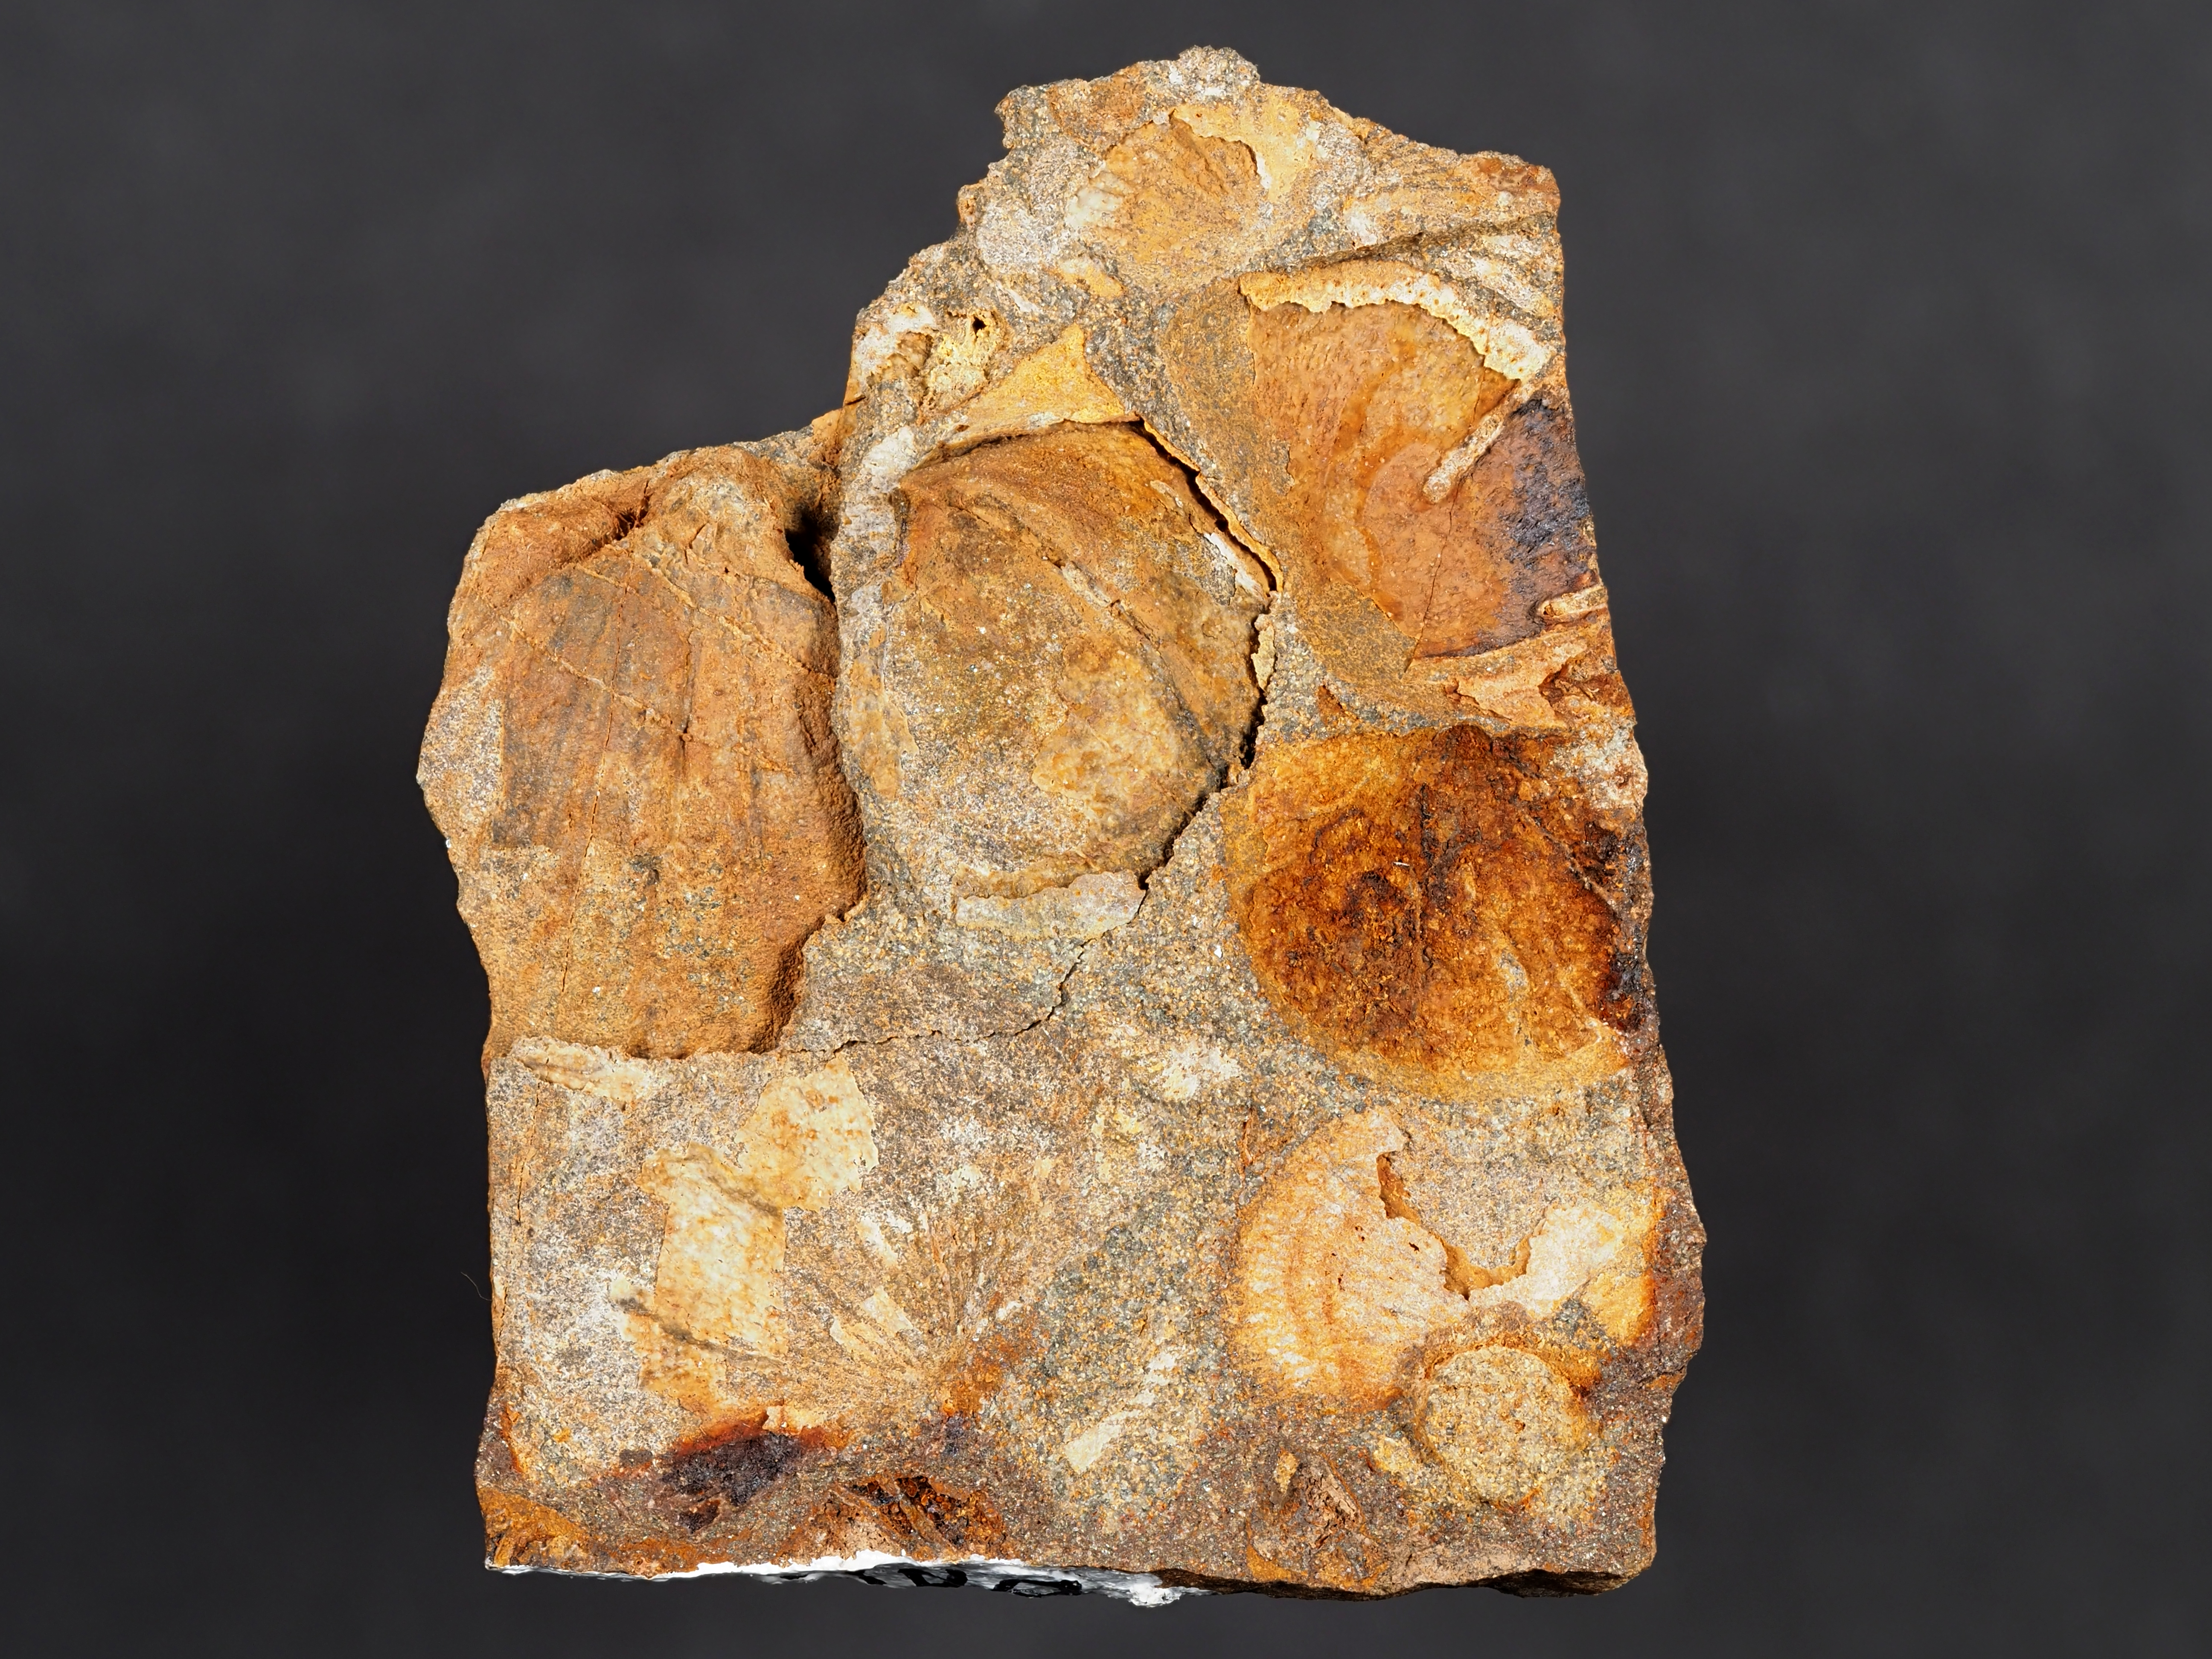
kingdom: Animalia
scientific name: Animalia
